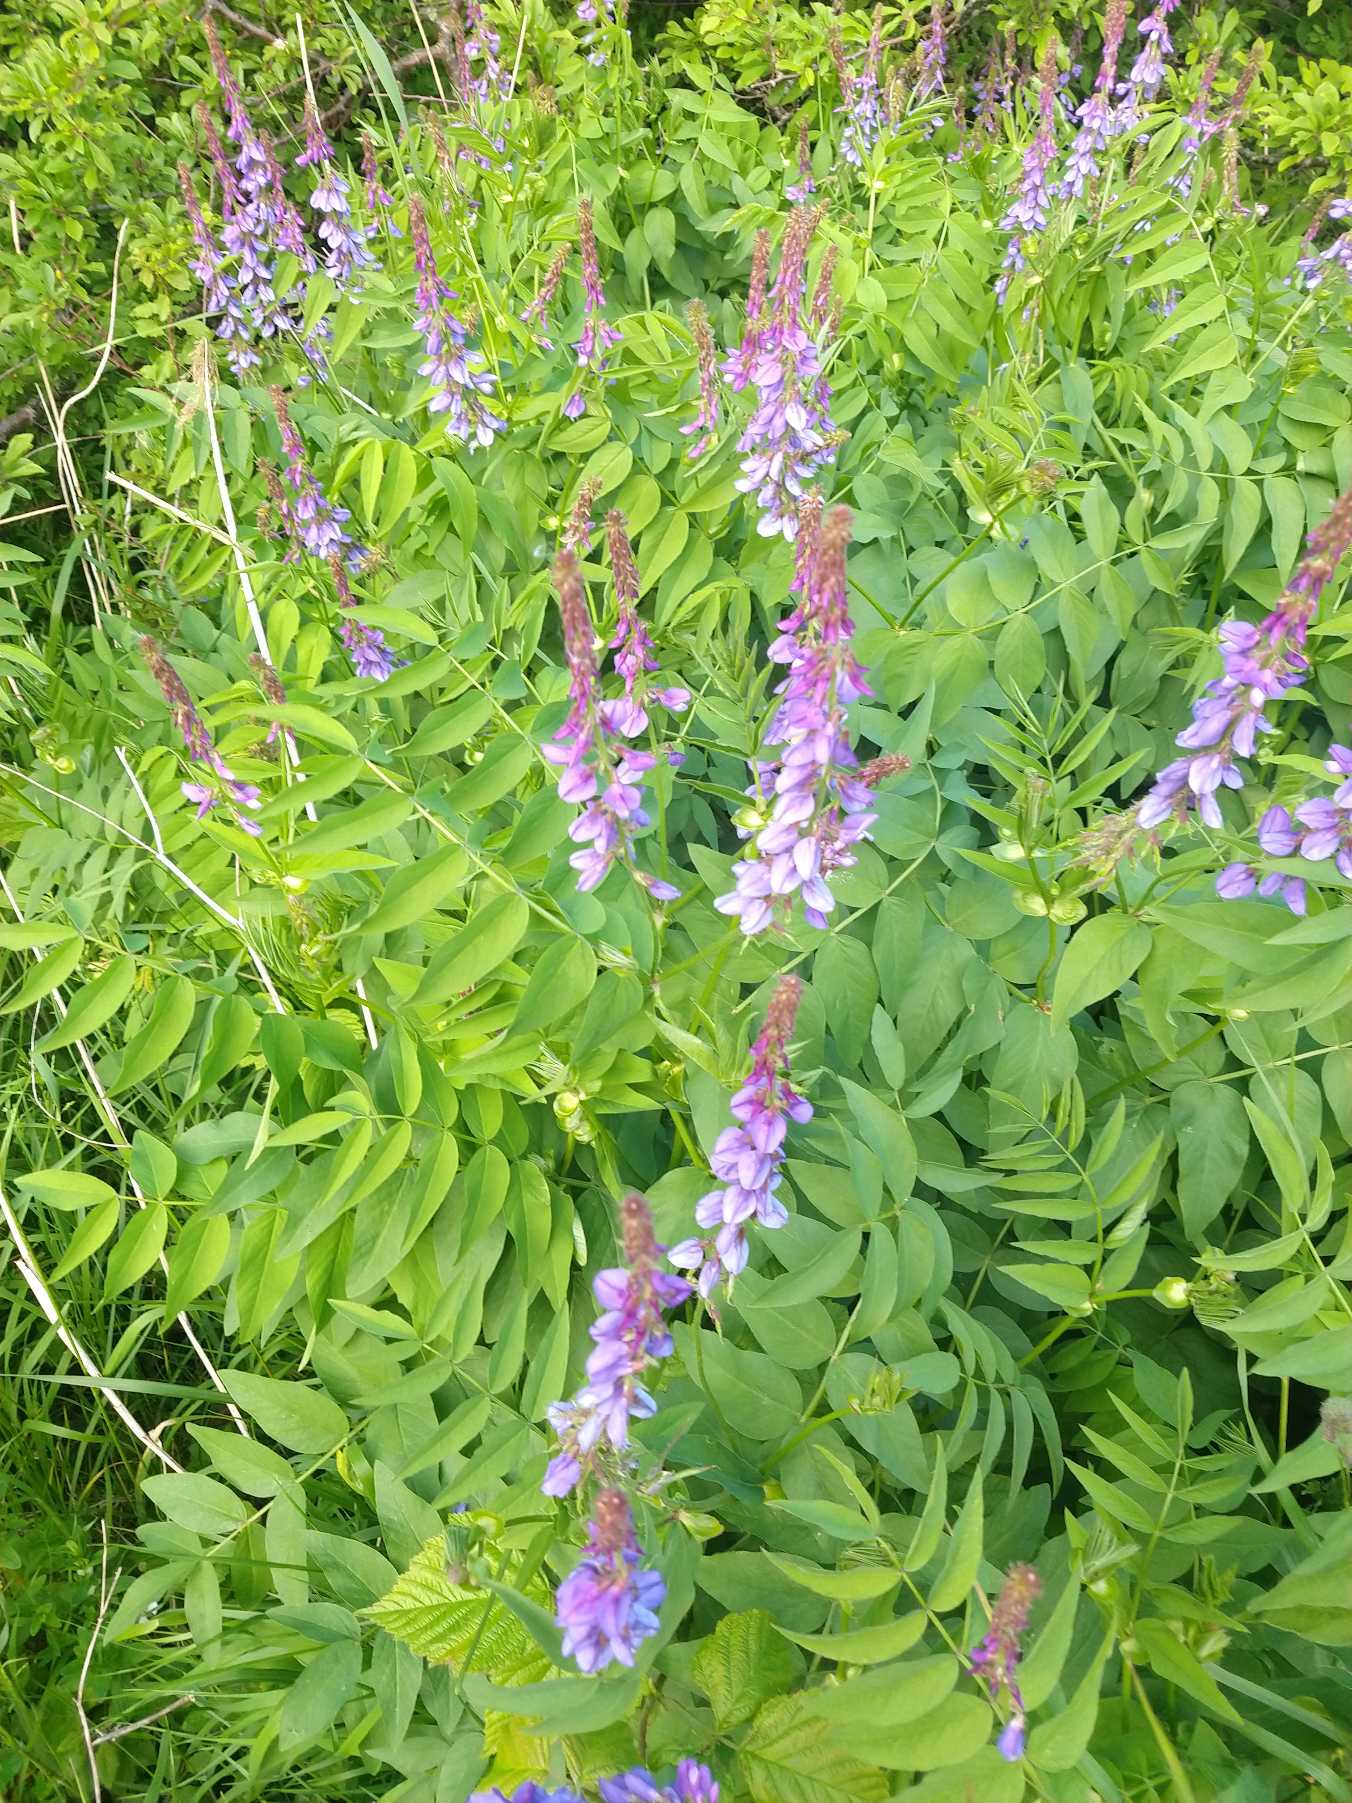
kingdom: Plantae
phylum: Tracheophyta
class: Magnoliopsida
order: Fabales
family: Fabaceae
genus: Galega
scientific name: Galega orientalis
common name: Blå stregbælg
